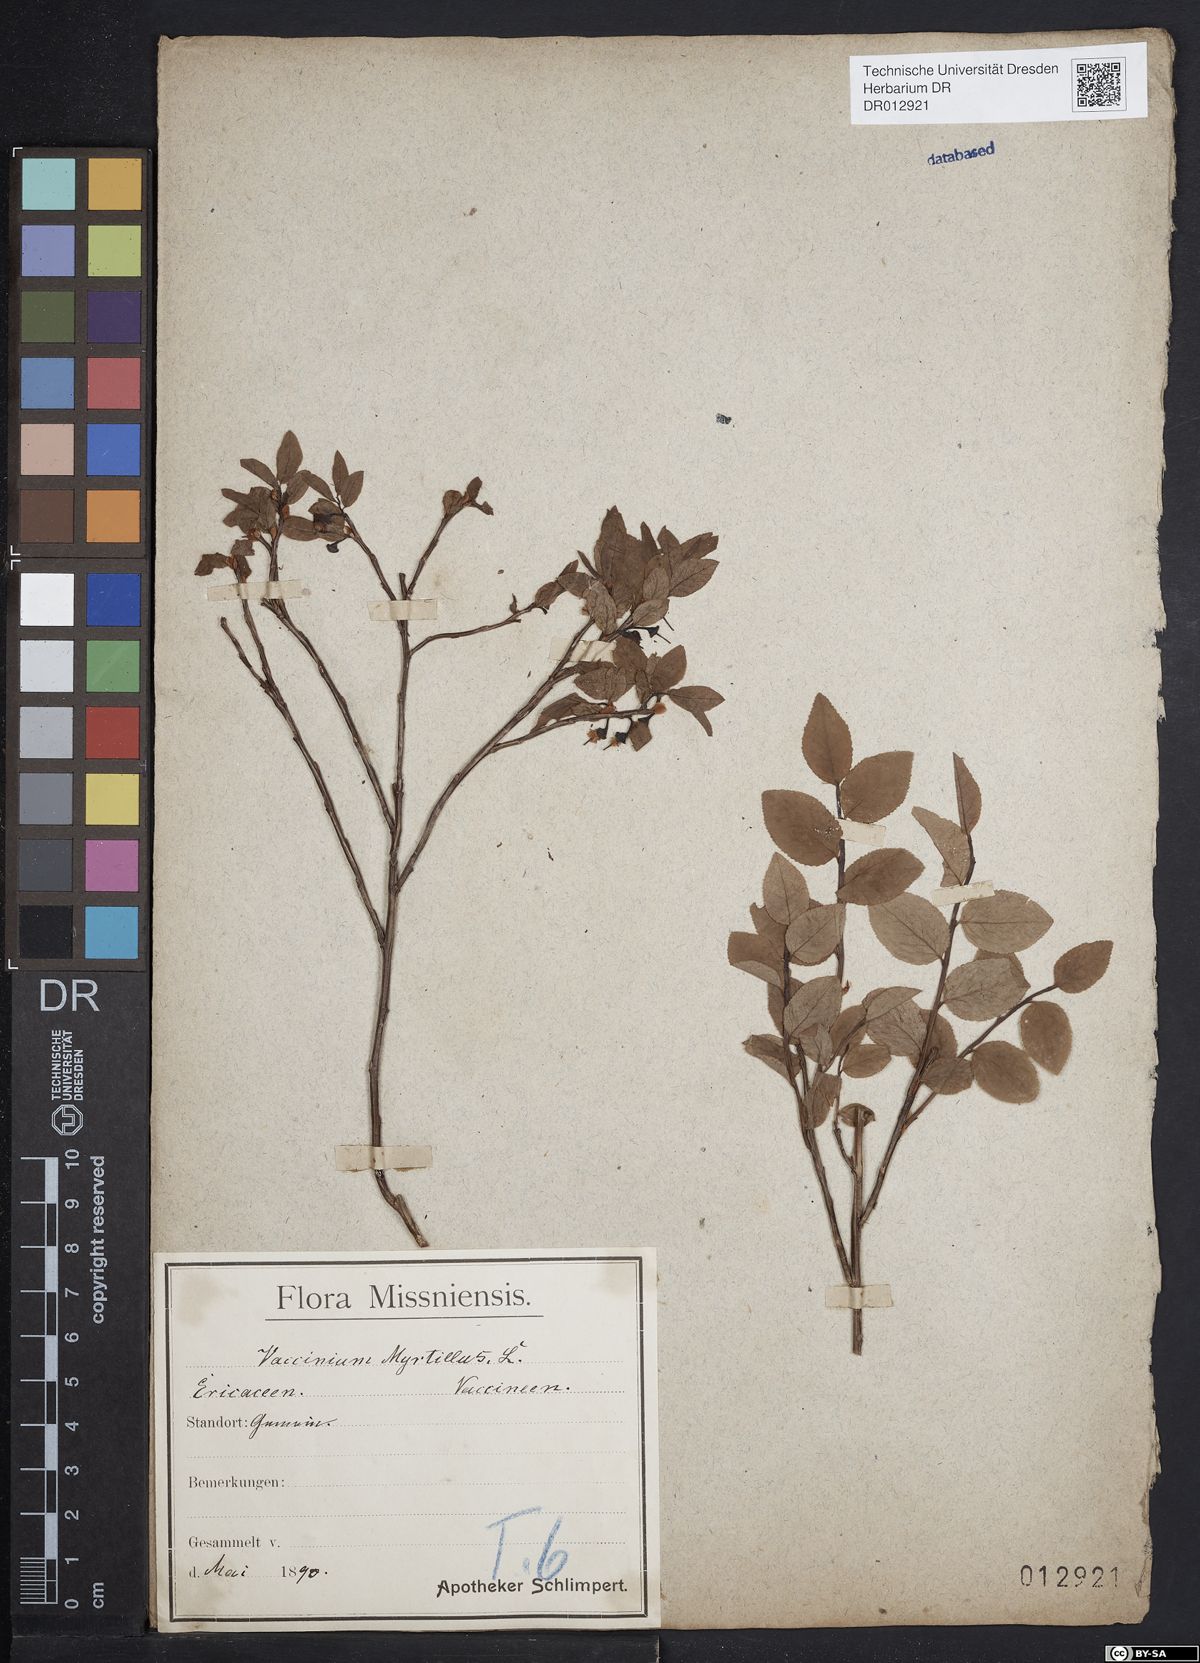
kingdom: Plantae
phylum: Tracheophyta
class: Magnoliopsida
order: Ericales
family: Ericaceae
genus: Vaccinium
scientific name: Vaccinium myrtillus
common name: Bilberry
